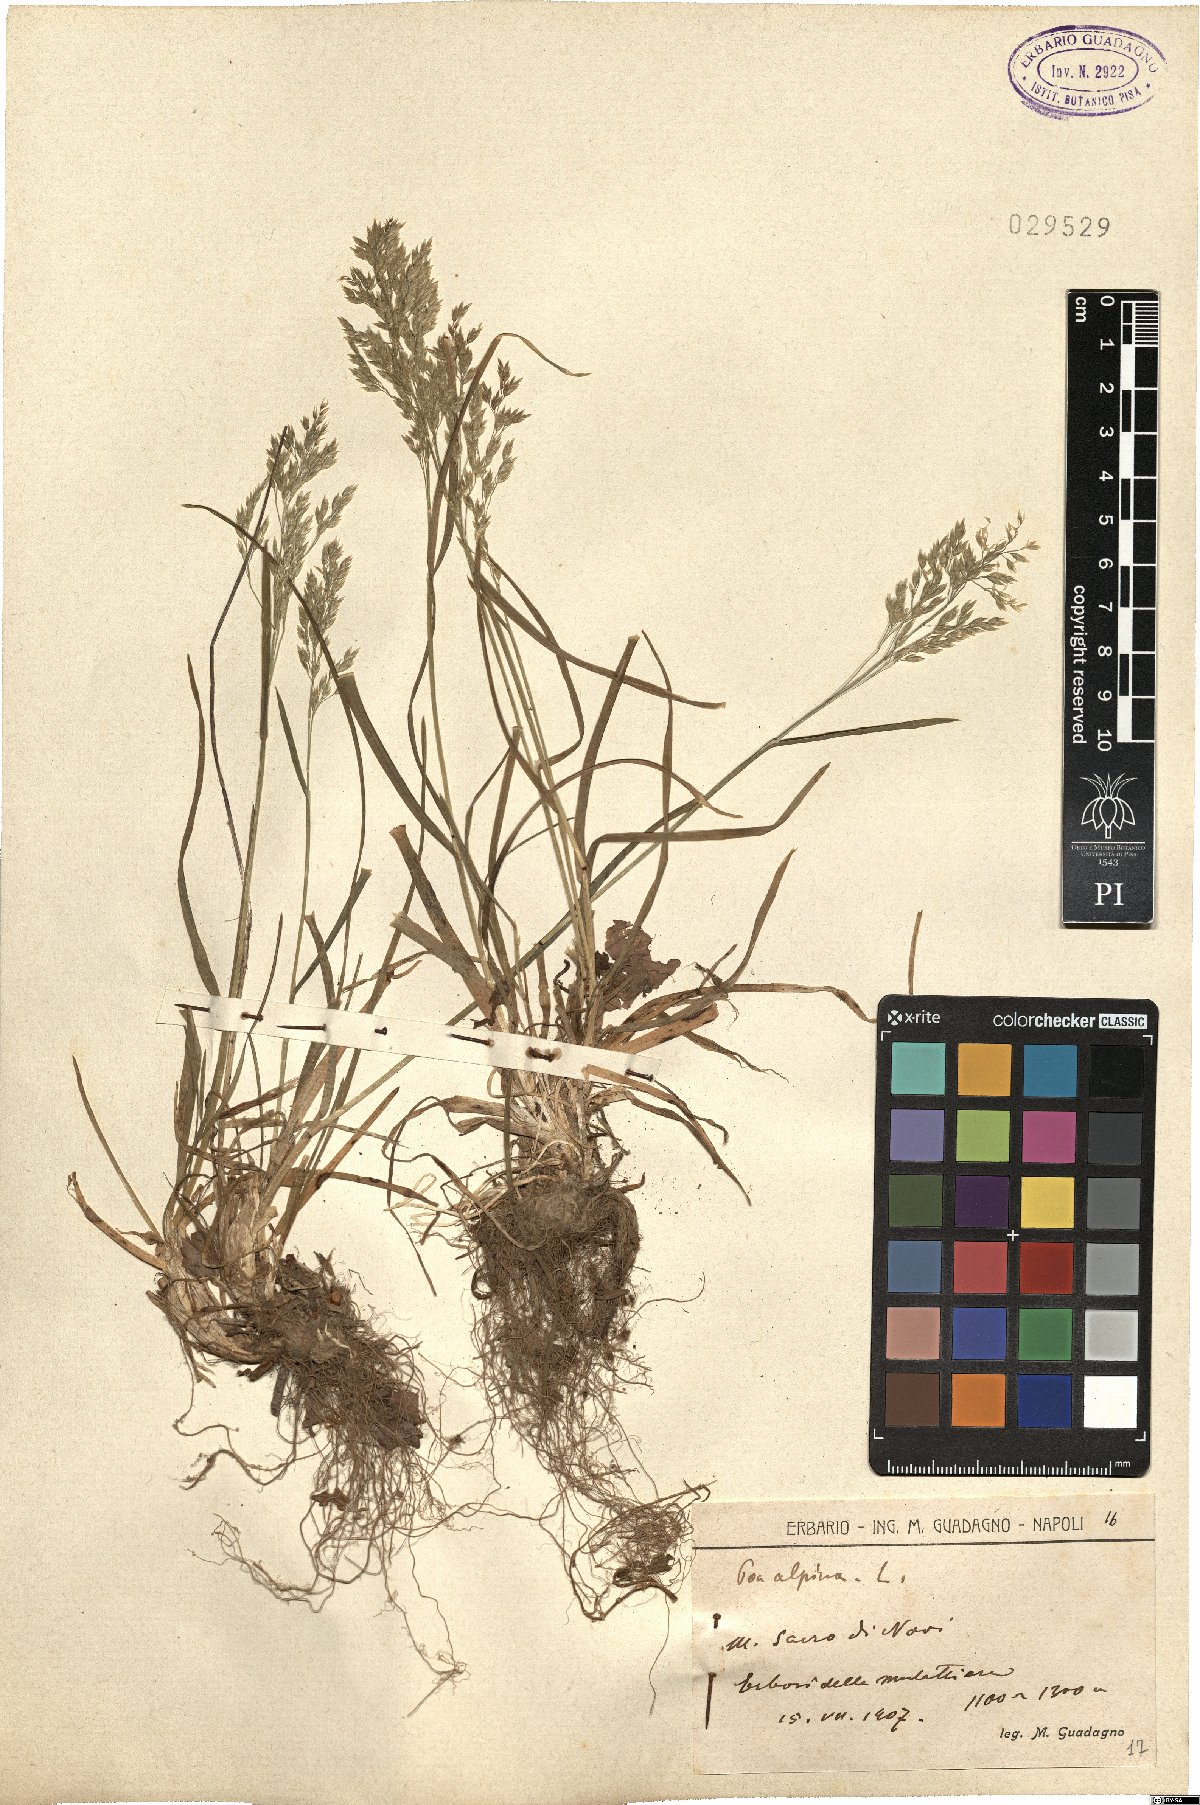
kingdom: Plantae
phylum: Tracheophyta
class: Liliopsida
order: Poales
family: Poaceae
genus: Poa
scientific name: Poa alpina
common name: Alpine bluegrass
